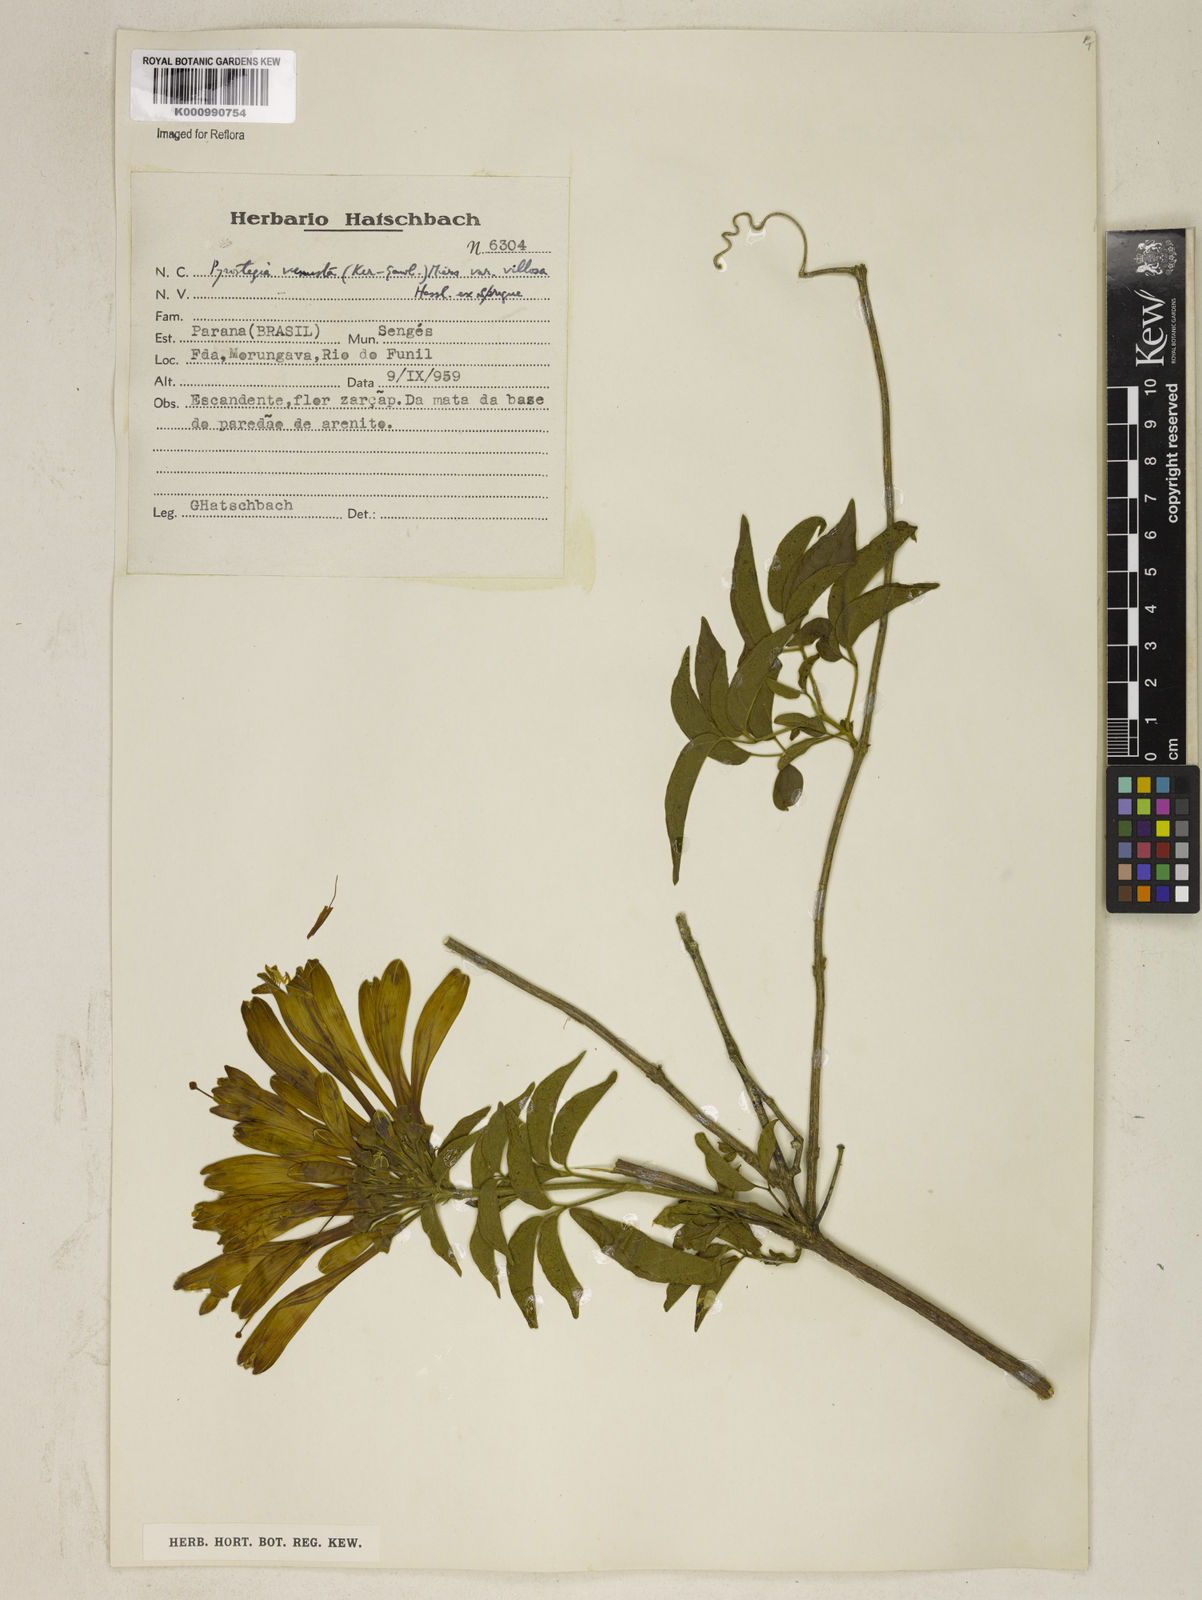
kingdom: Plantae
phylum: Tracheophyta
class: Magnoliopsida
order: Lamiales
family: Bignoniaceae
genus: Pyrostegia
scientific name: Pyrostegia venusta
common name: Flamevine
